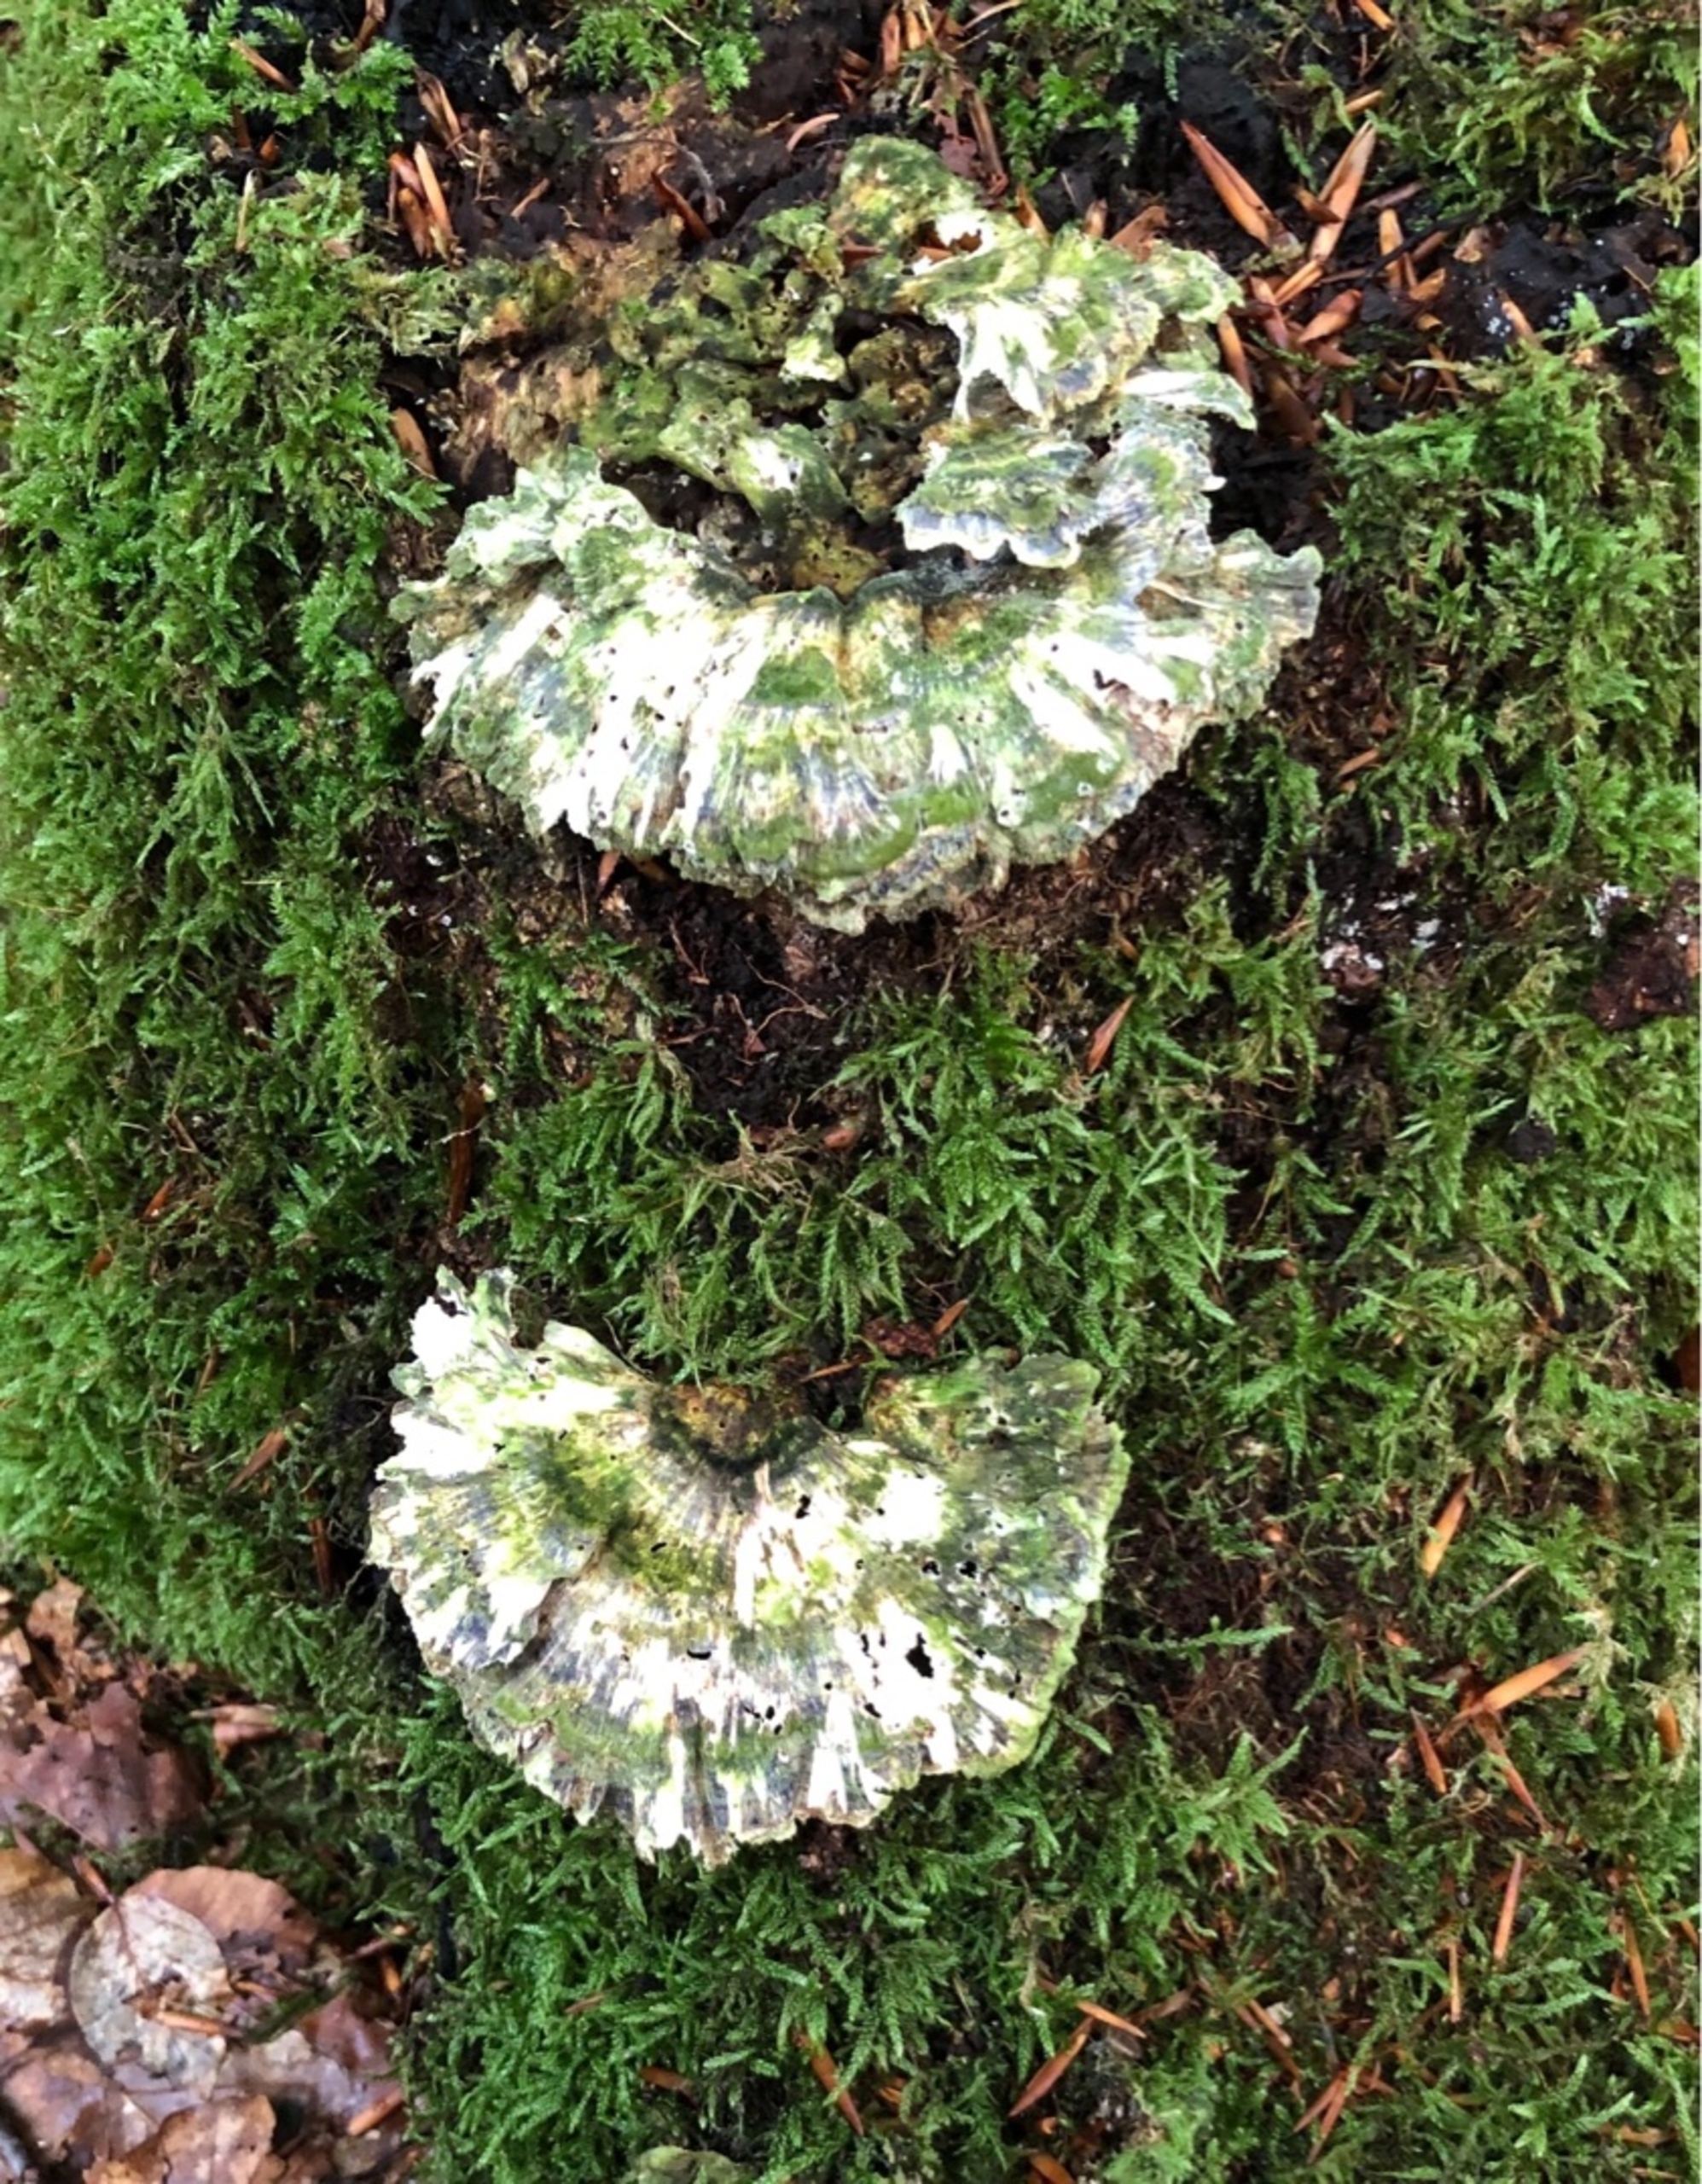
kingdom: Fungi
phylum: Basidiomycota
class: Agaricomycetes
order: Polyporales
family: Polyporaceae
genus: Trametes
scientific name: Trametes
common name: Læderporesvamp
